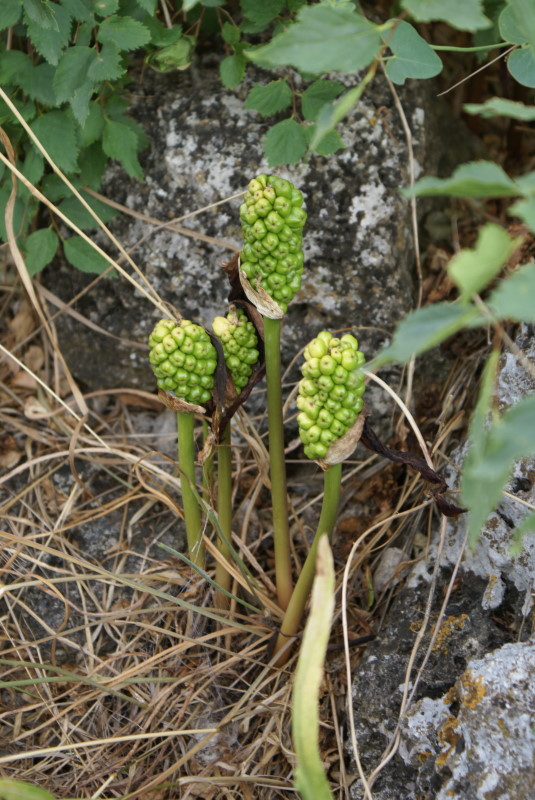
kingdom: Plantae
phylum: Tracheophyta
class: Liliopsida
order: Alismatales
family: Araceae
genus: Arum
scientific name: Arum
